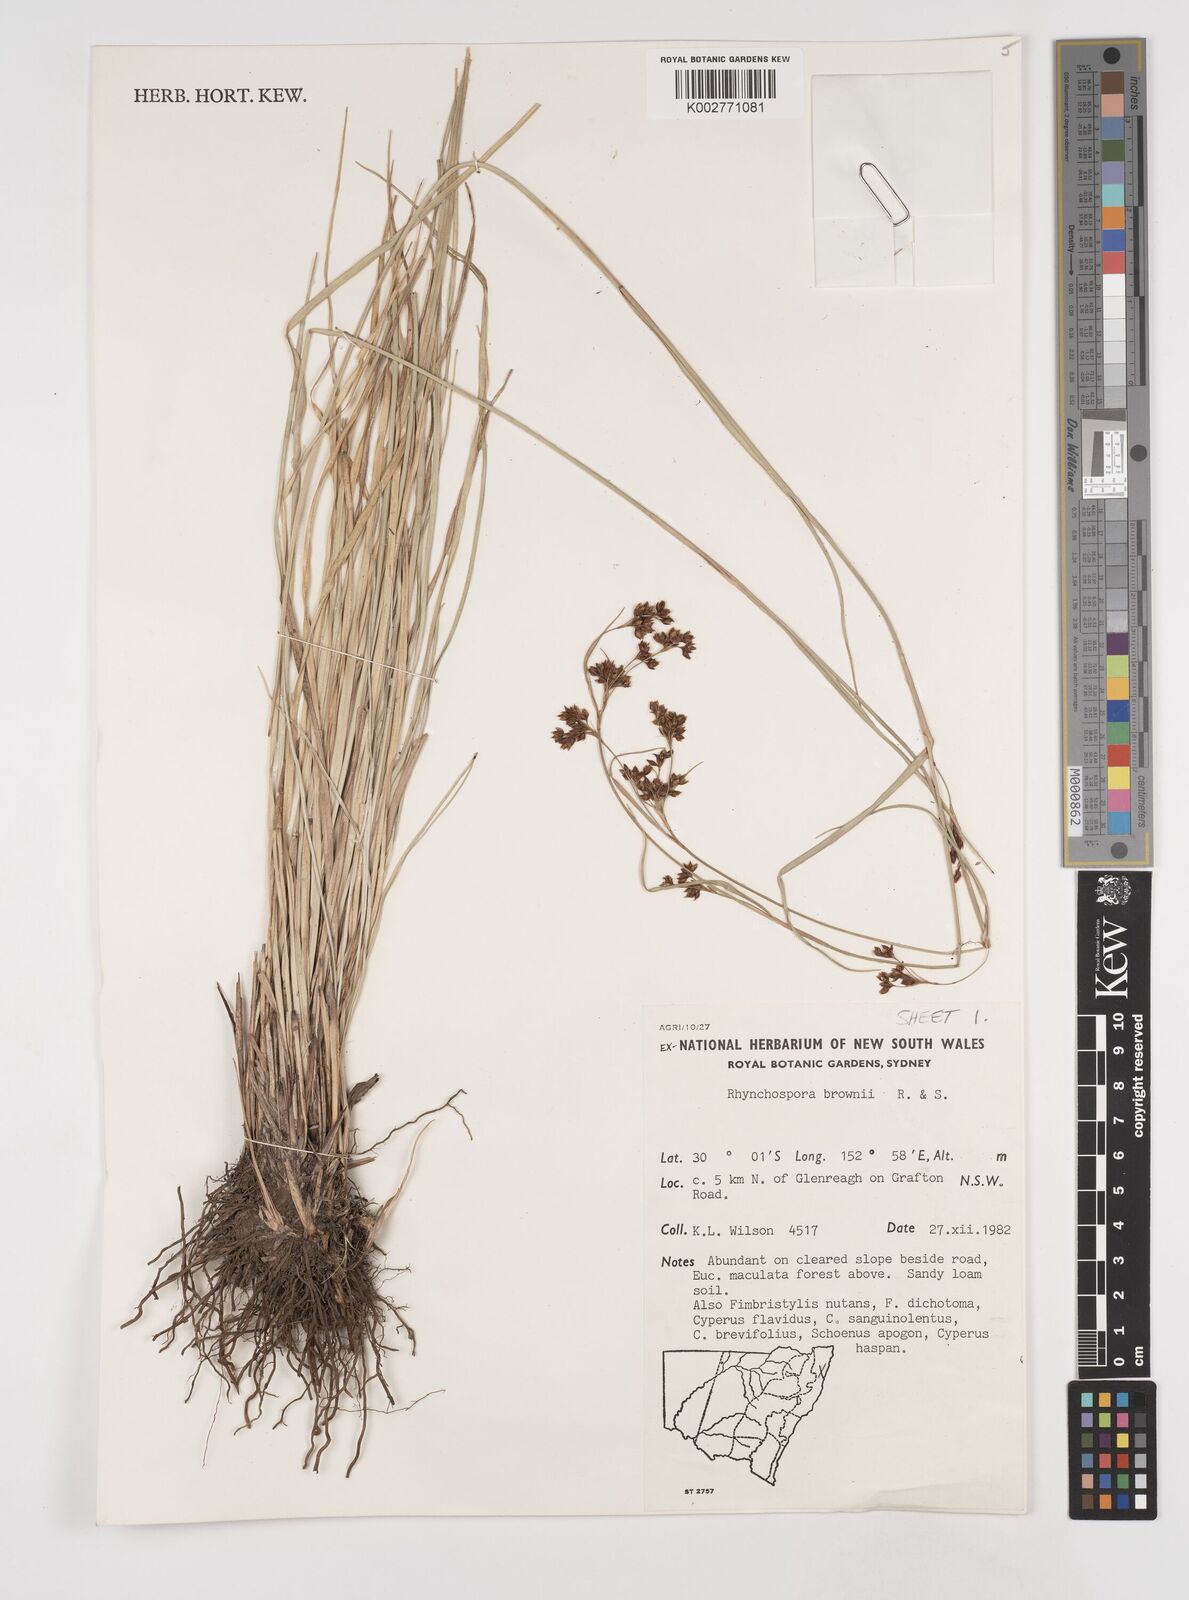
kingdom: Plantae
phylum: Tracheophyta
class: Liliopsida
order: Poales
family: Cyperaceae
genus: Rhynchospora
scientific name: Rhynchospora rugosa
